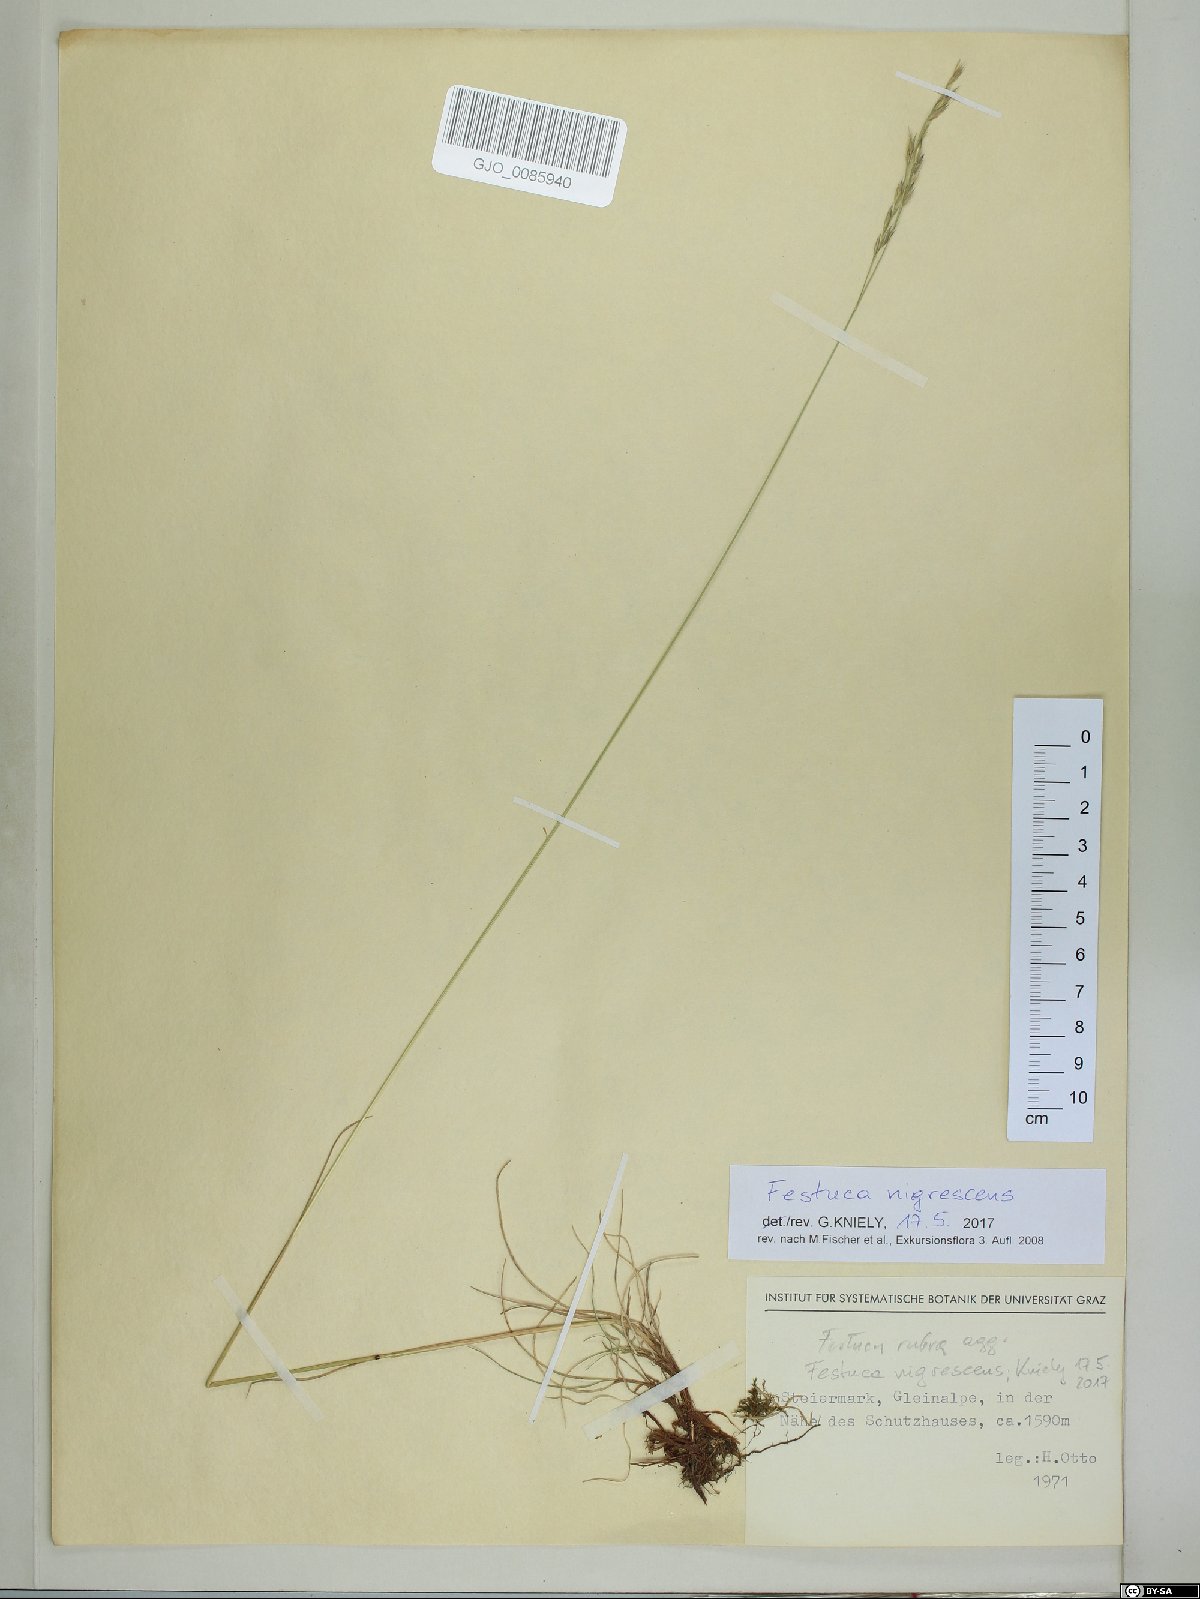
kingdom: Plantae
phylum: Tracheophyta
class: Liliopsida
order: Poales
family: Poaceae
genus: Festuca
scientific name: Festuca nigrescens
